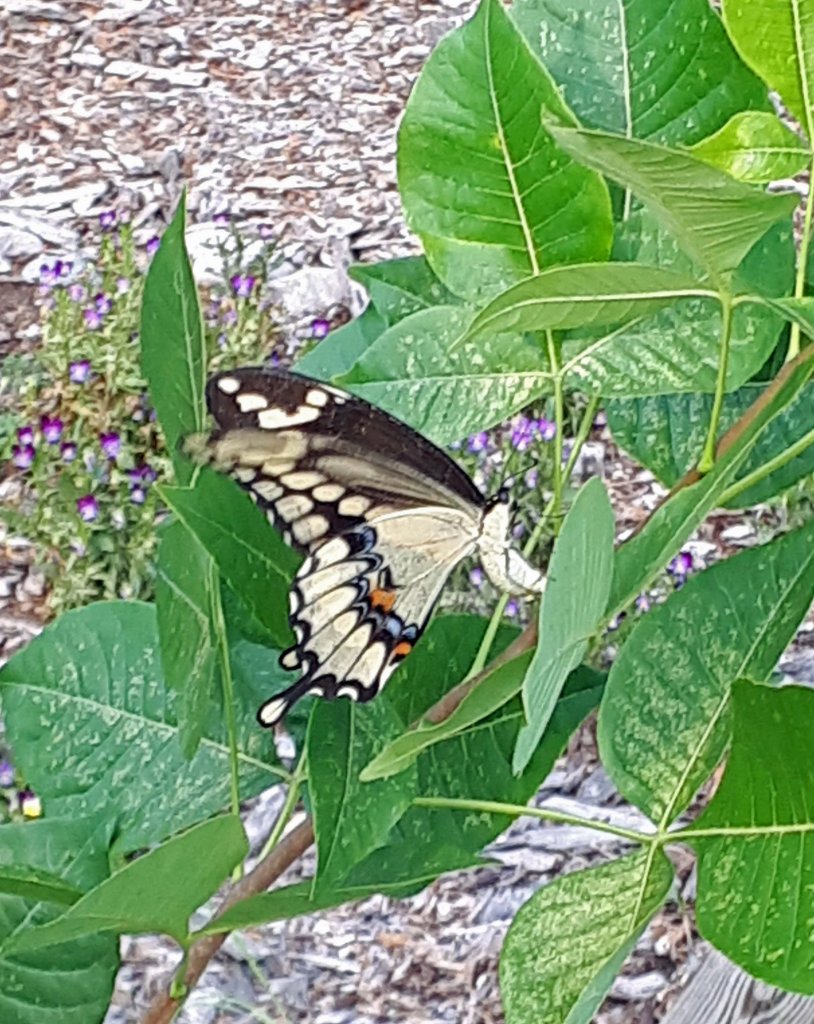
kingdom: Animalia
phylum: Arthropoda
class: Insecta
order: Lepidoptera
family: Papilionidae
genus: Papilio
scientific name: Papilio cresphontes
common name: Eastern Giant Swallowtail
